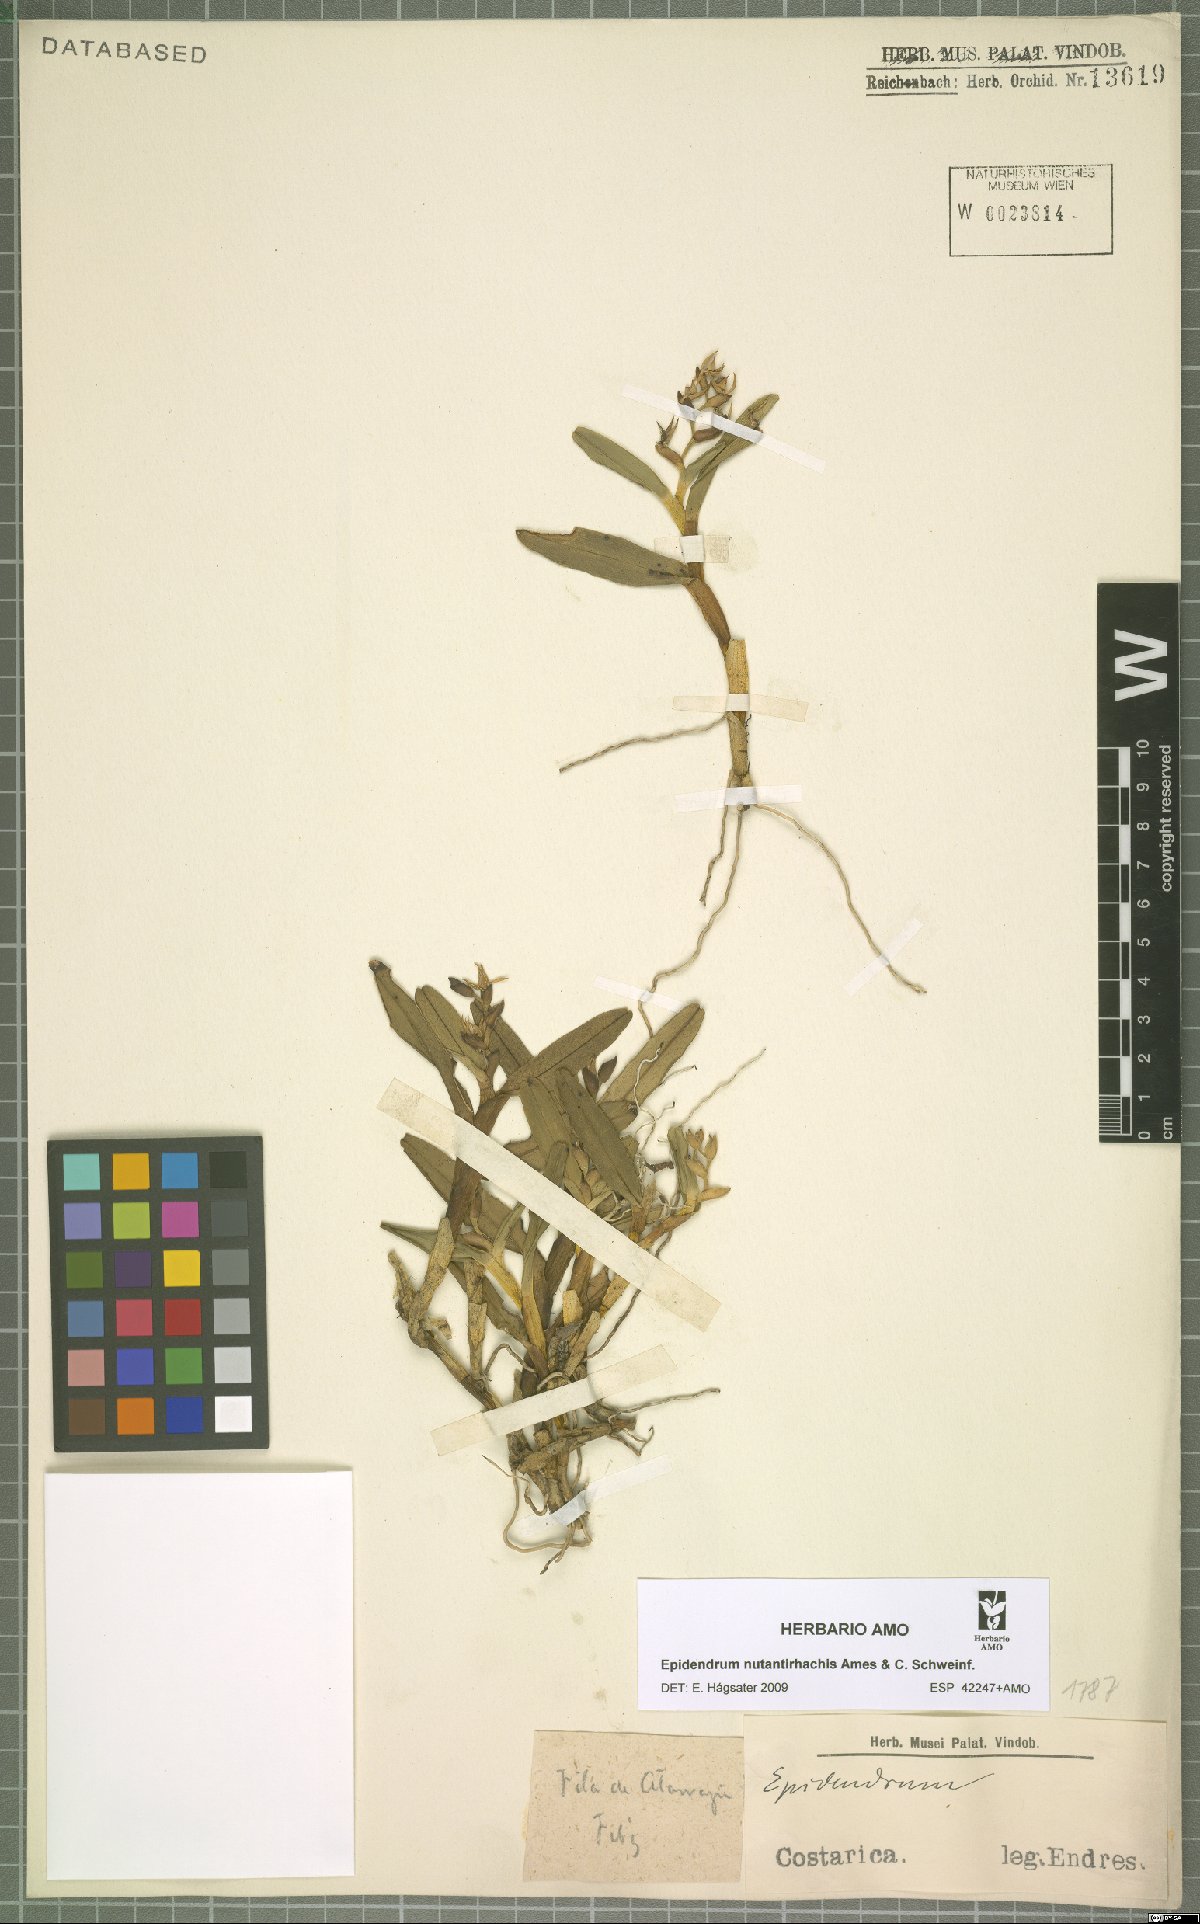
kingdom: Plantae
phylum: Tracheophyta
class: Liliopsida
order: Asparagales
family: Orchidaceae
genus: Epidendrum
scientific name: Epidendrum nutantirhachis
